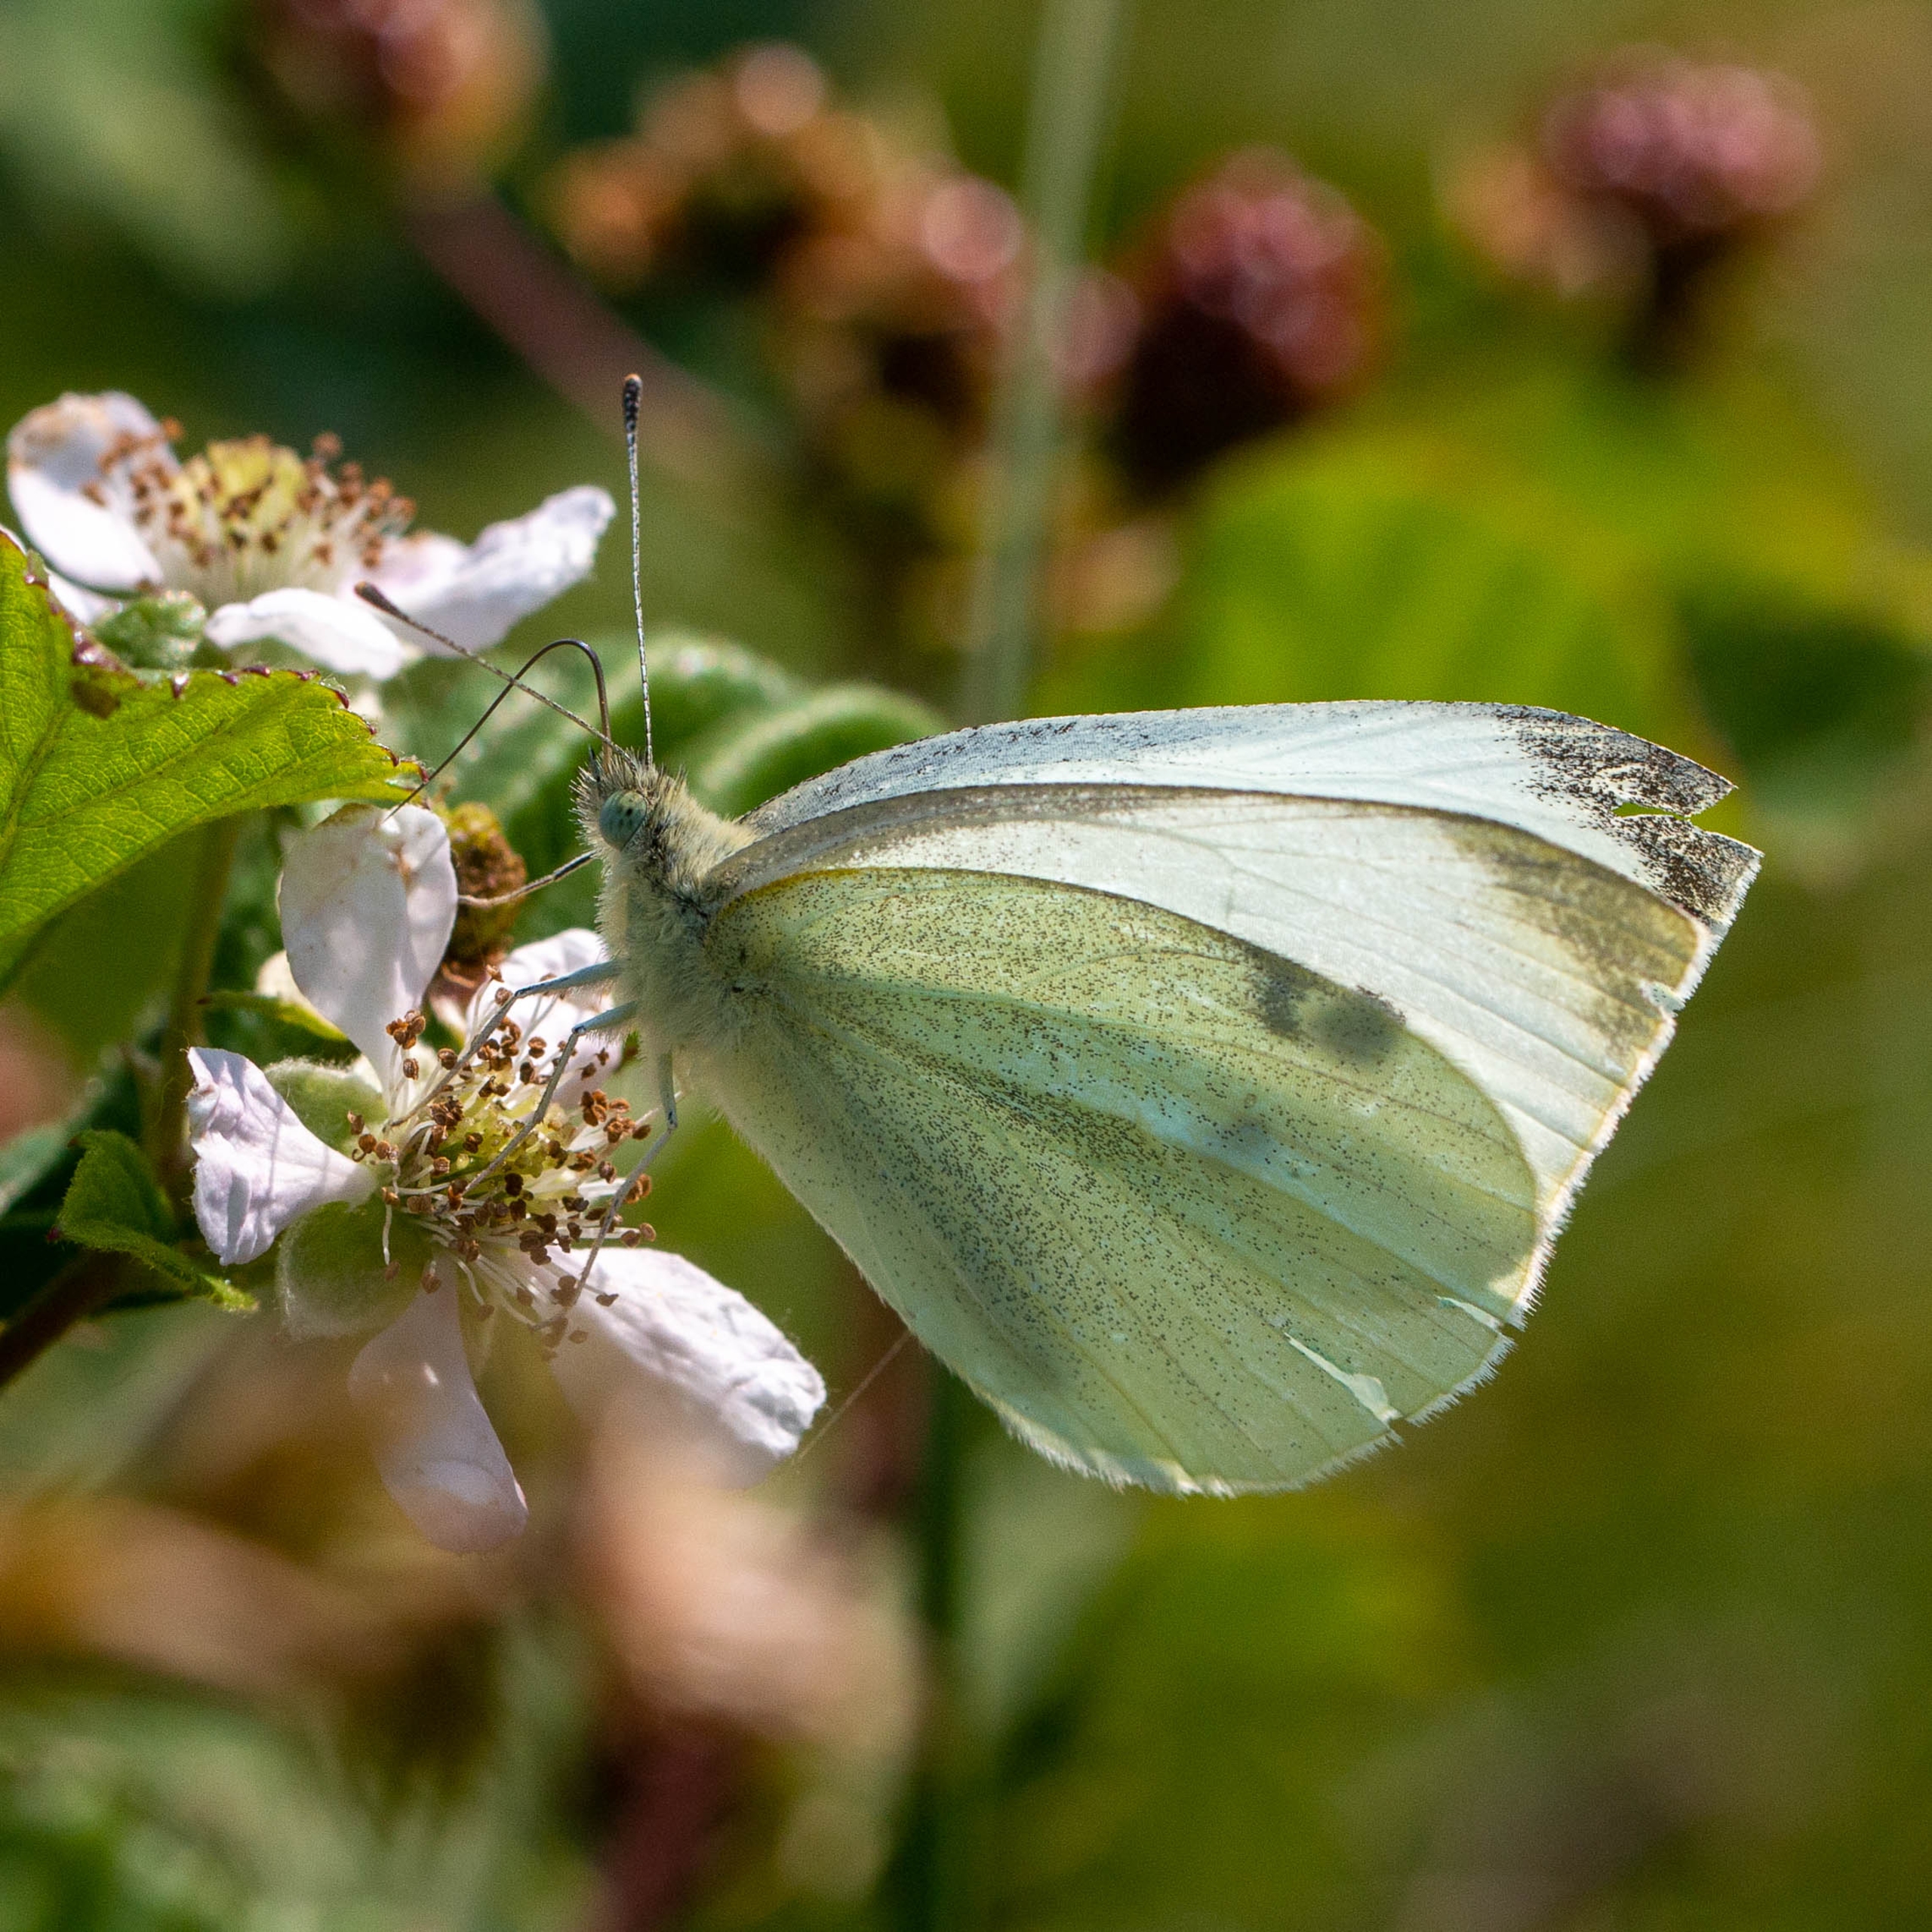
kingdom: Animalia
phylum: Arthropoda
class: Insecta
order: Lepidoptera
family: Pieridae
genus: Pieris
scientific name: Pieris rapae
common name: Lille kålsommerfugl
